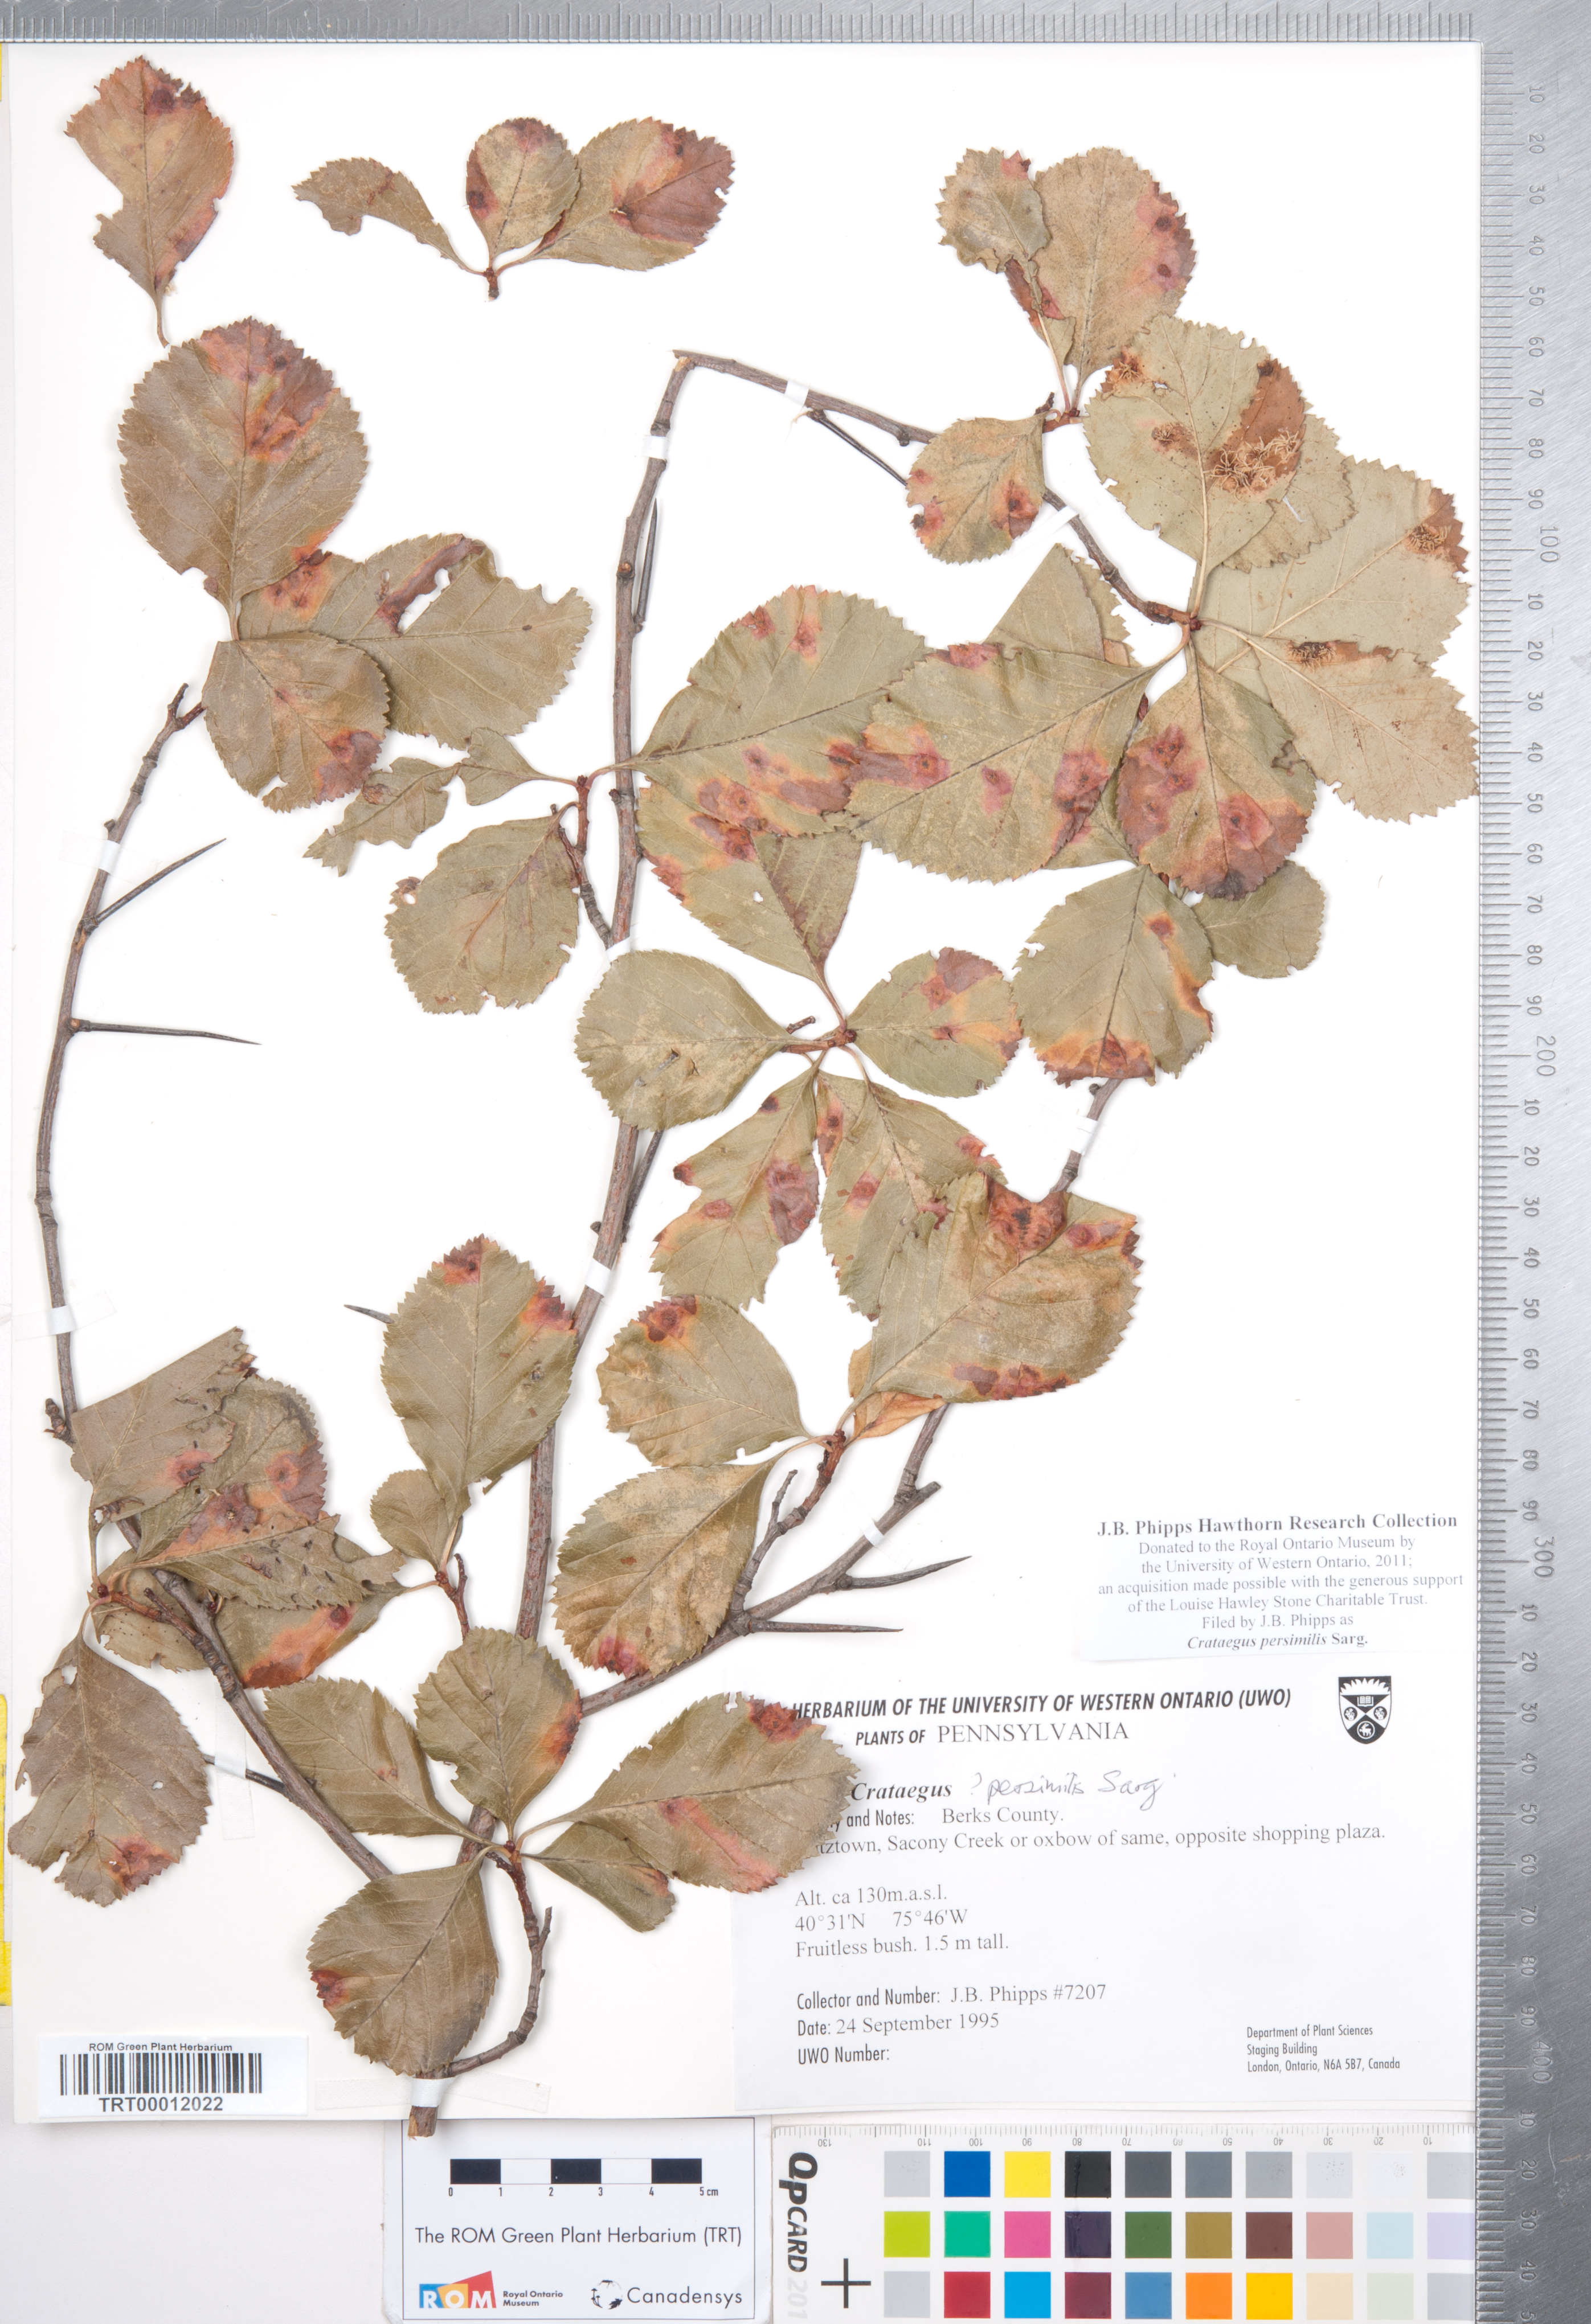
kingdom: Plantae
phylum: Tracheophyta
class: Magnoliopsida
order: Rosales
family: Rosaceae
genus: Crataegus
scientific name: Crataegus persimilis
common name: Broad-leaved cockspurthorn
